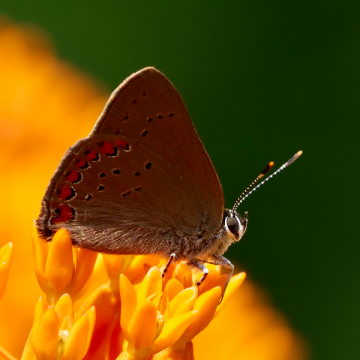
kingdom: Animalia
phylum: Arthropoda
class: Insecta
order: Lepidoptera
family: Lycaenidae
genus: Harkenclenus
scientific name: Harkenclenus titus
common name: Coral Hairstreak
